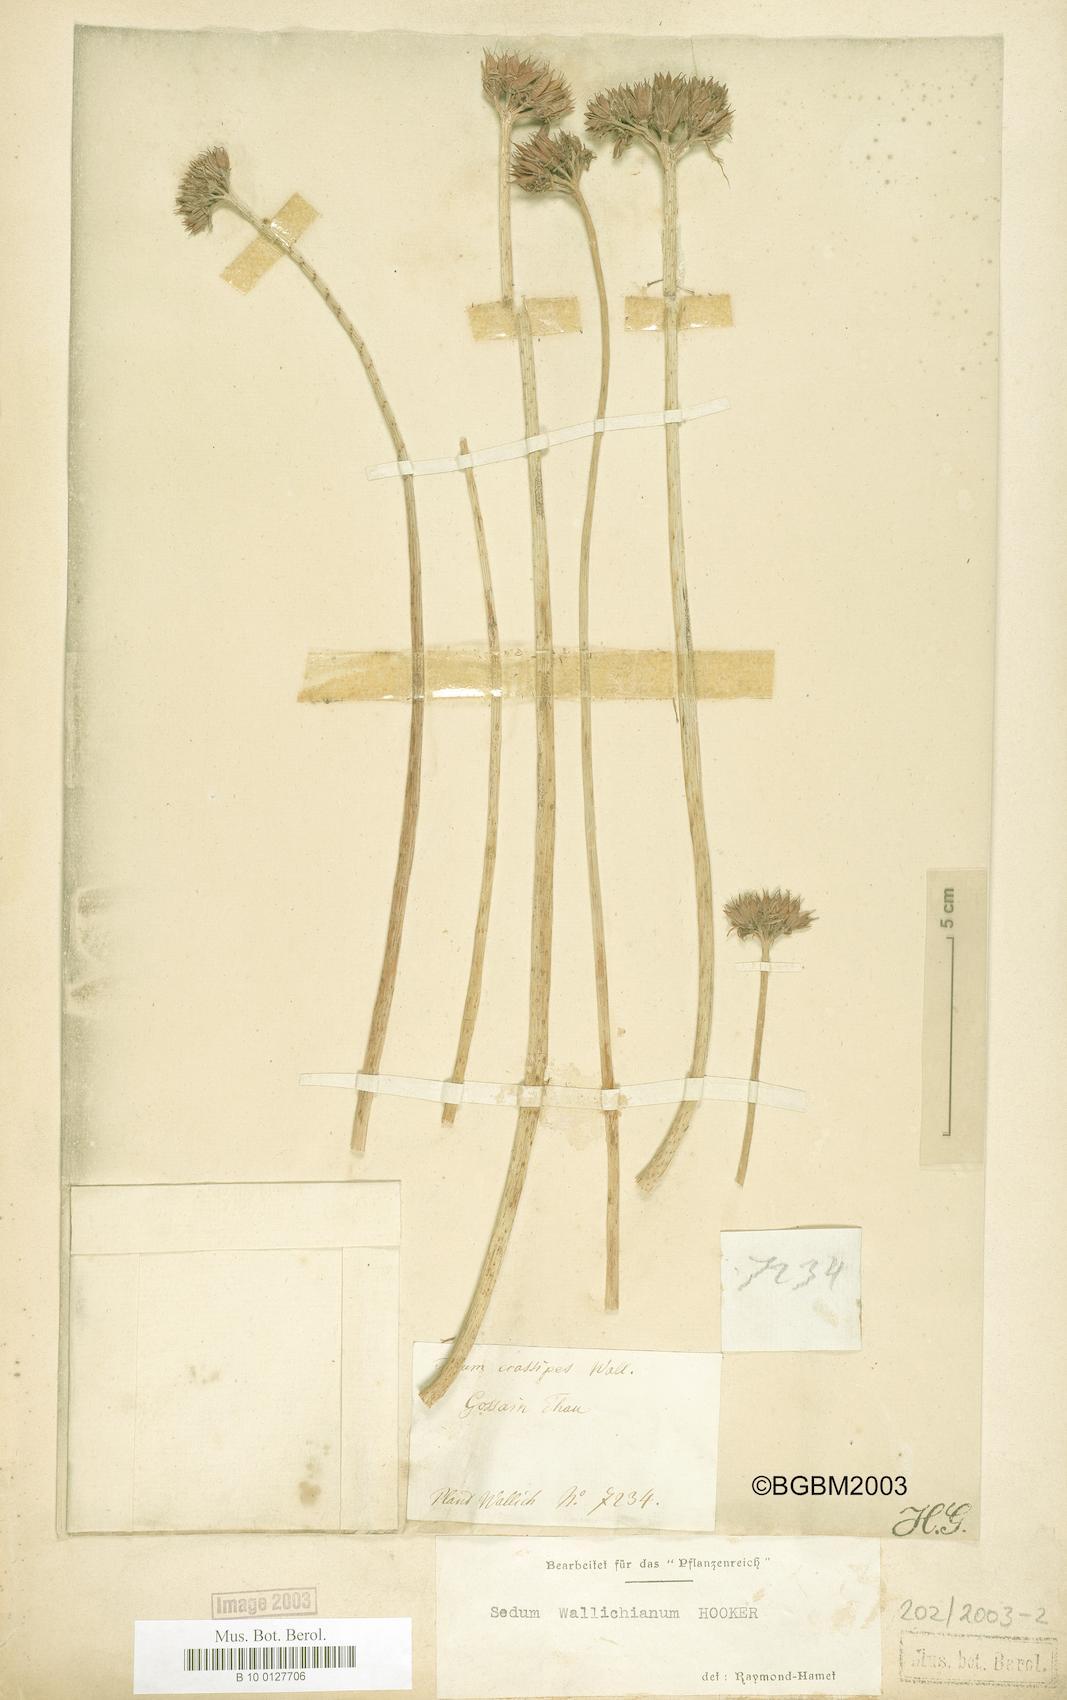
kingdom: Plantae
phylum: Tracheophyta
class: Magnoliopsida
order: Saxifragales
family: Crassulaceae
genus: Rhodiola
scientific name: Rhodiola wallichiana
